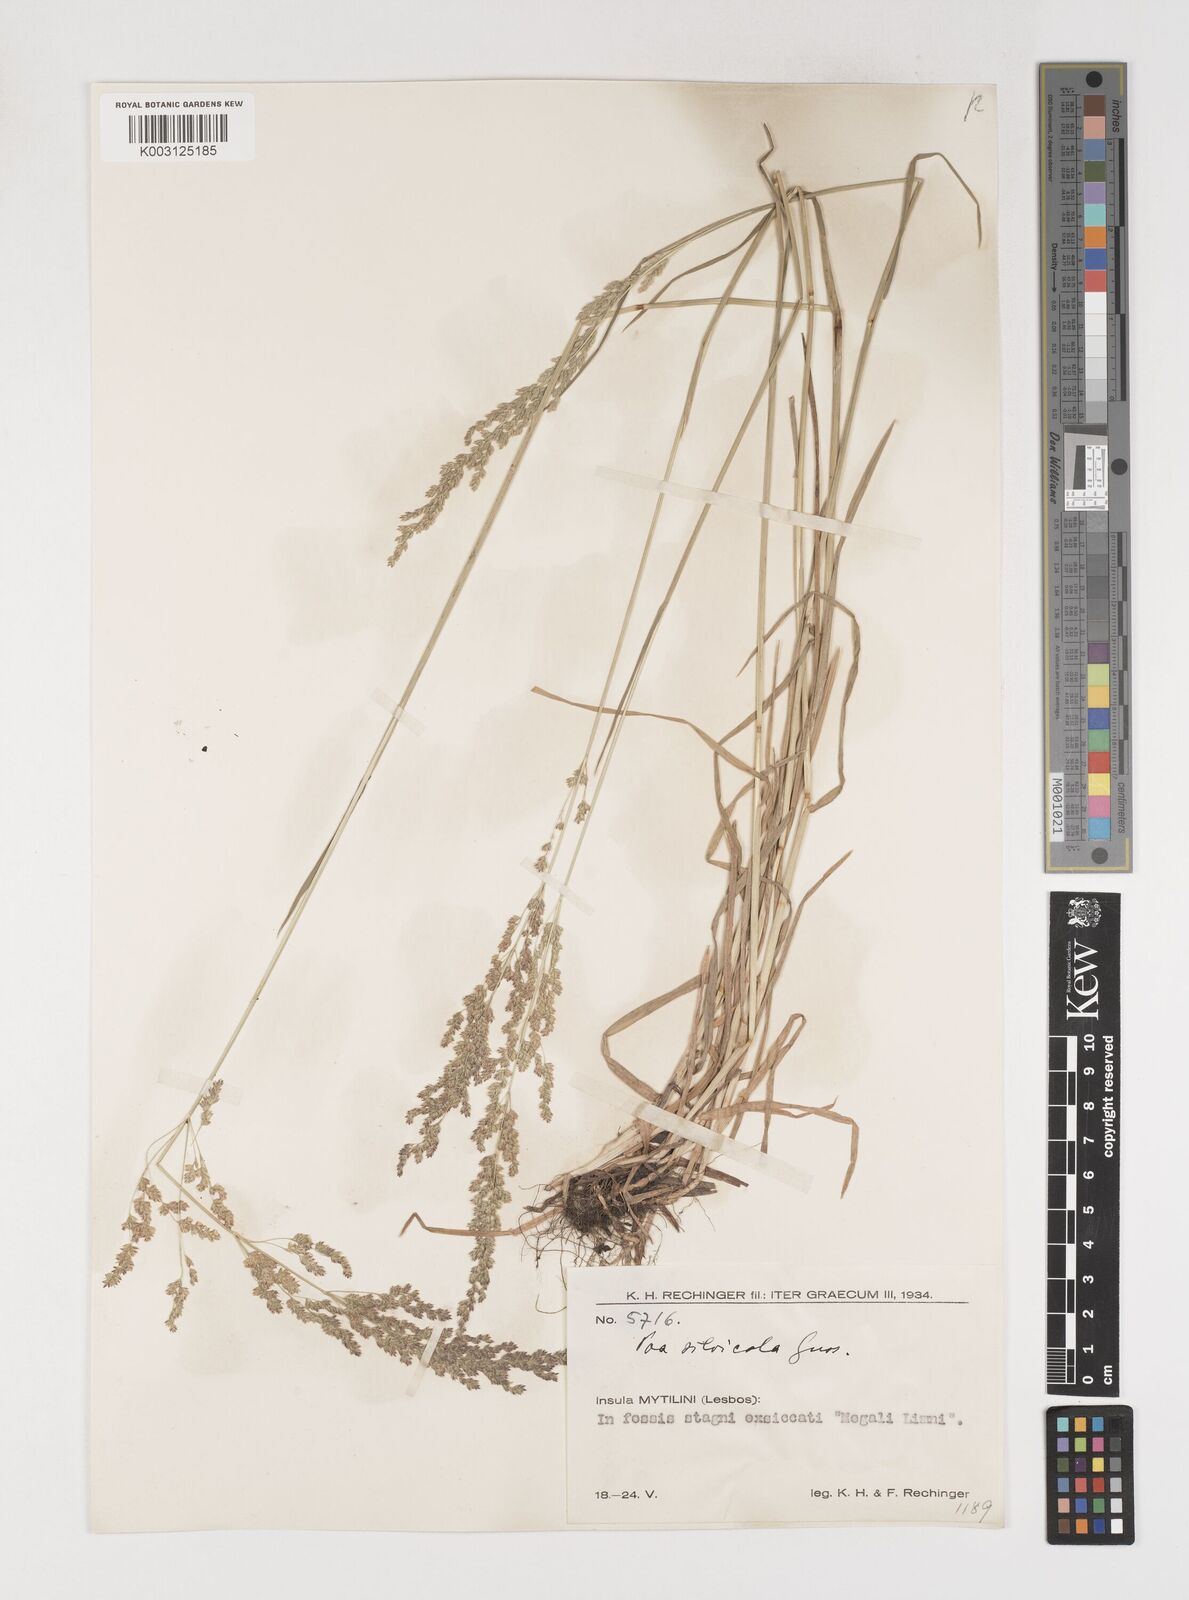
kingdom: Plantae
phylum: Tracheophyta
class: Liliopsida
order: Poales
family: Poaceae
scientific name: Poaceae
